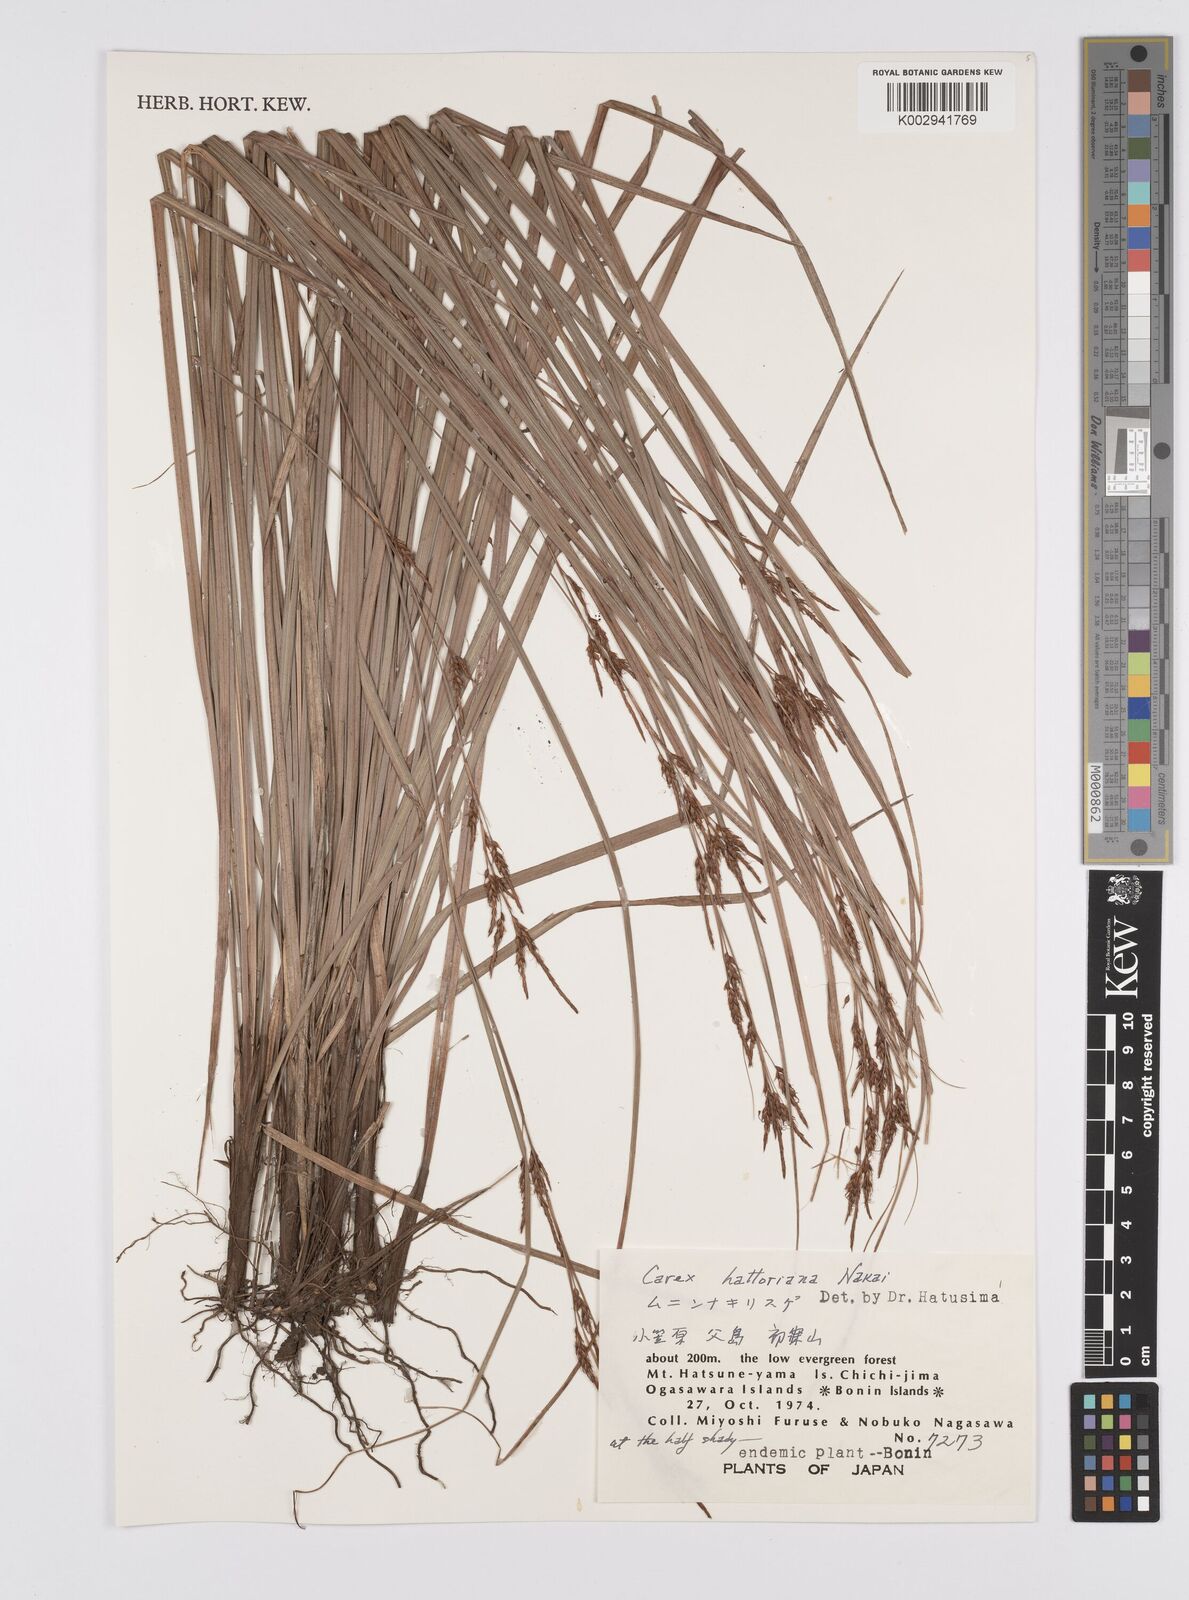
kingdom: Plantae
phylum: Tracheophyta
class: Liliopsida
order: Poales
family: Cyperaceae
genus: Carex
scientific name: Carex brunnea
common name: Greater brown sedge
